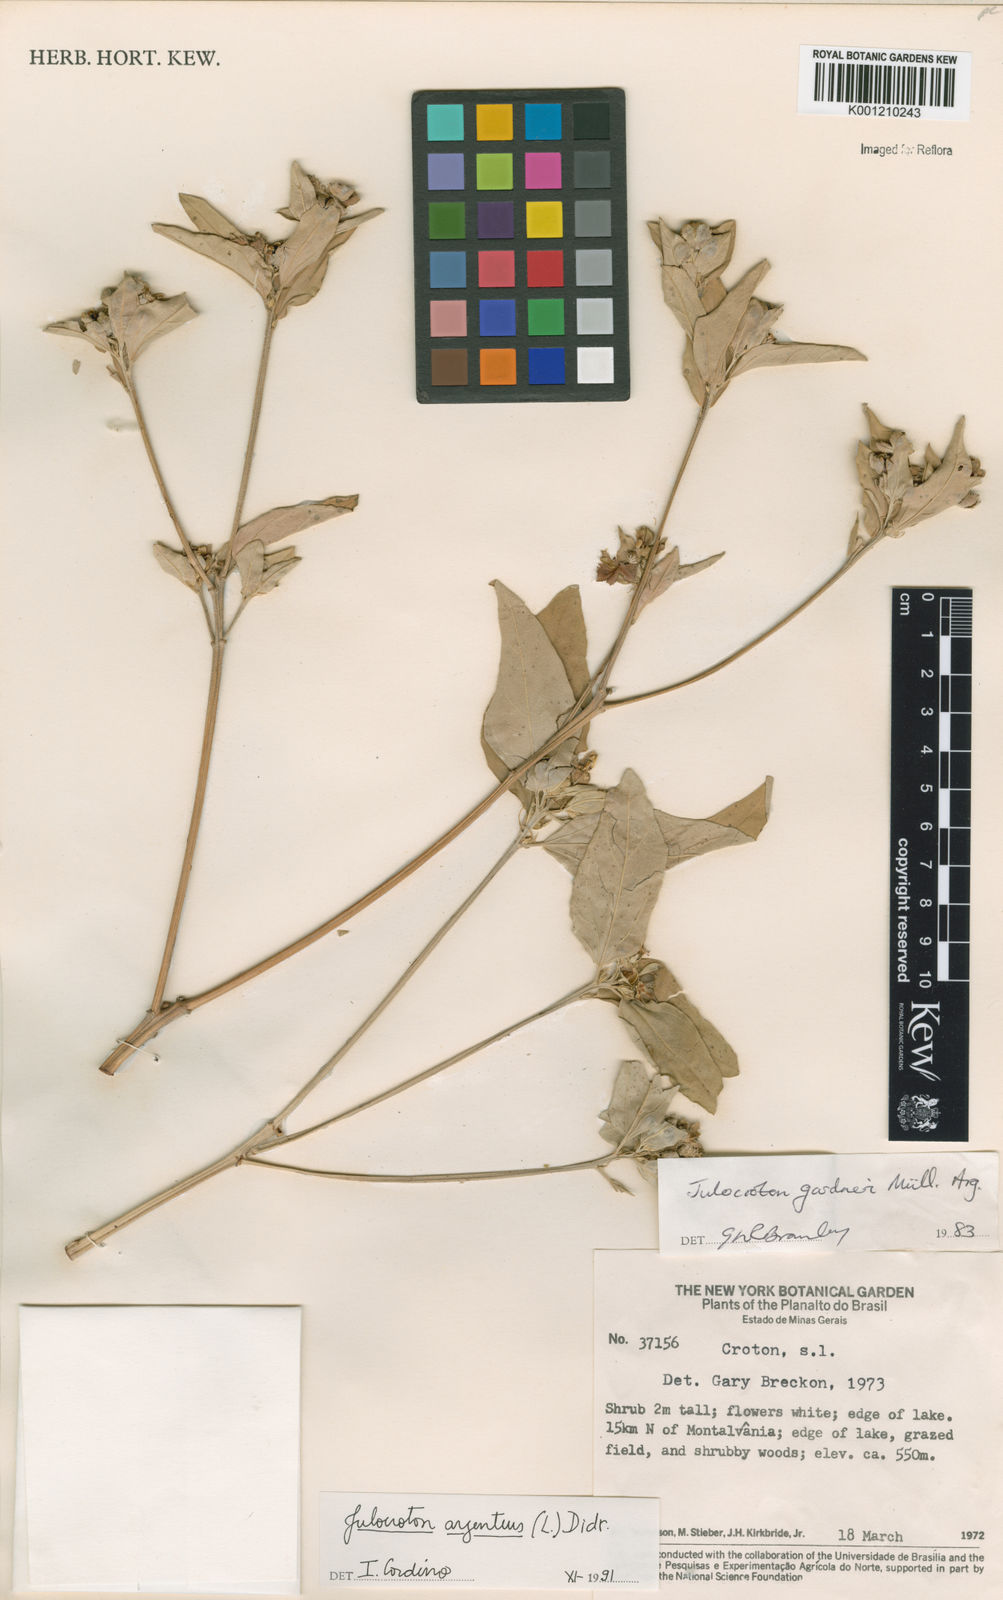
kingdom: Plantae
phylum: Tracheophyta
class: Magnoliopsida
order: Malpighiales
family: Euphorbiaceae
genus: Croton
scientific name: Croton
